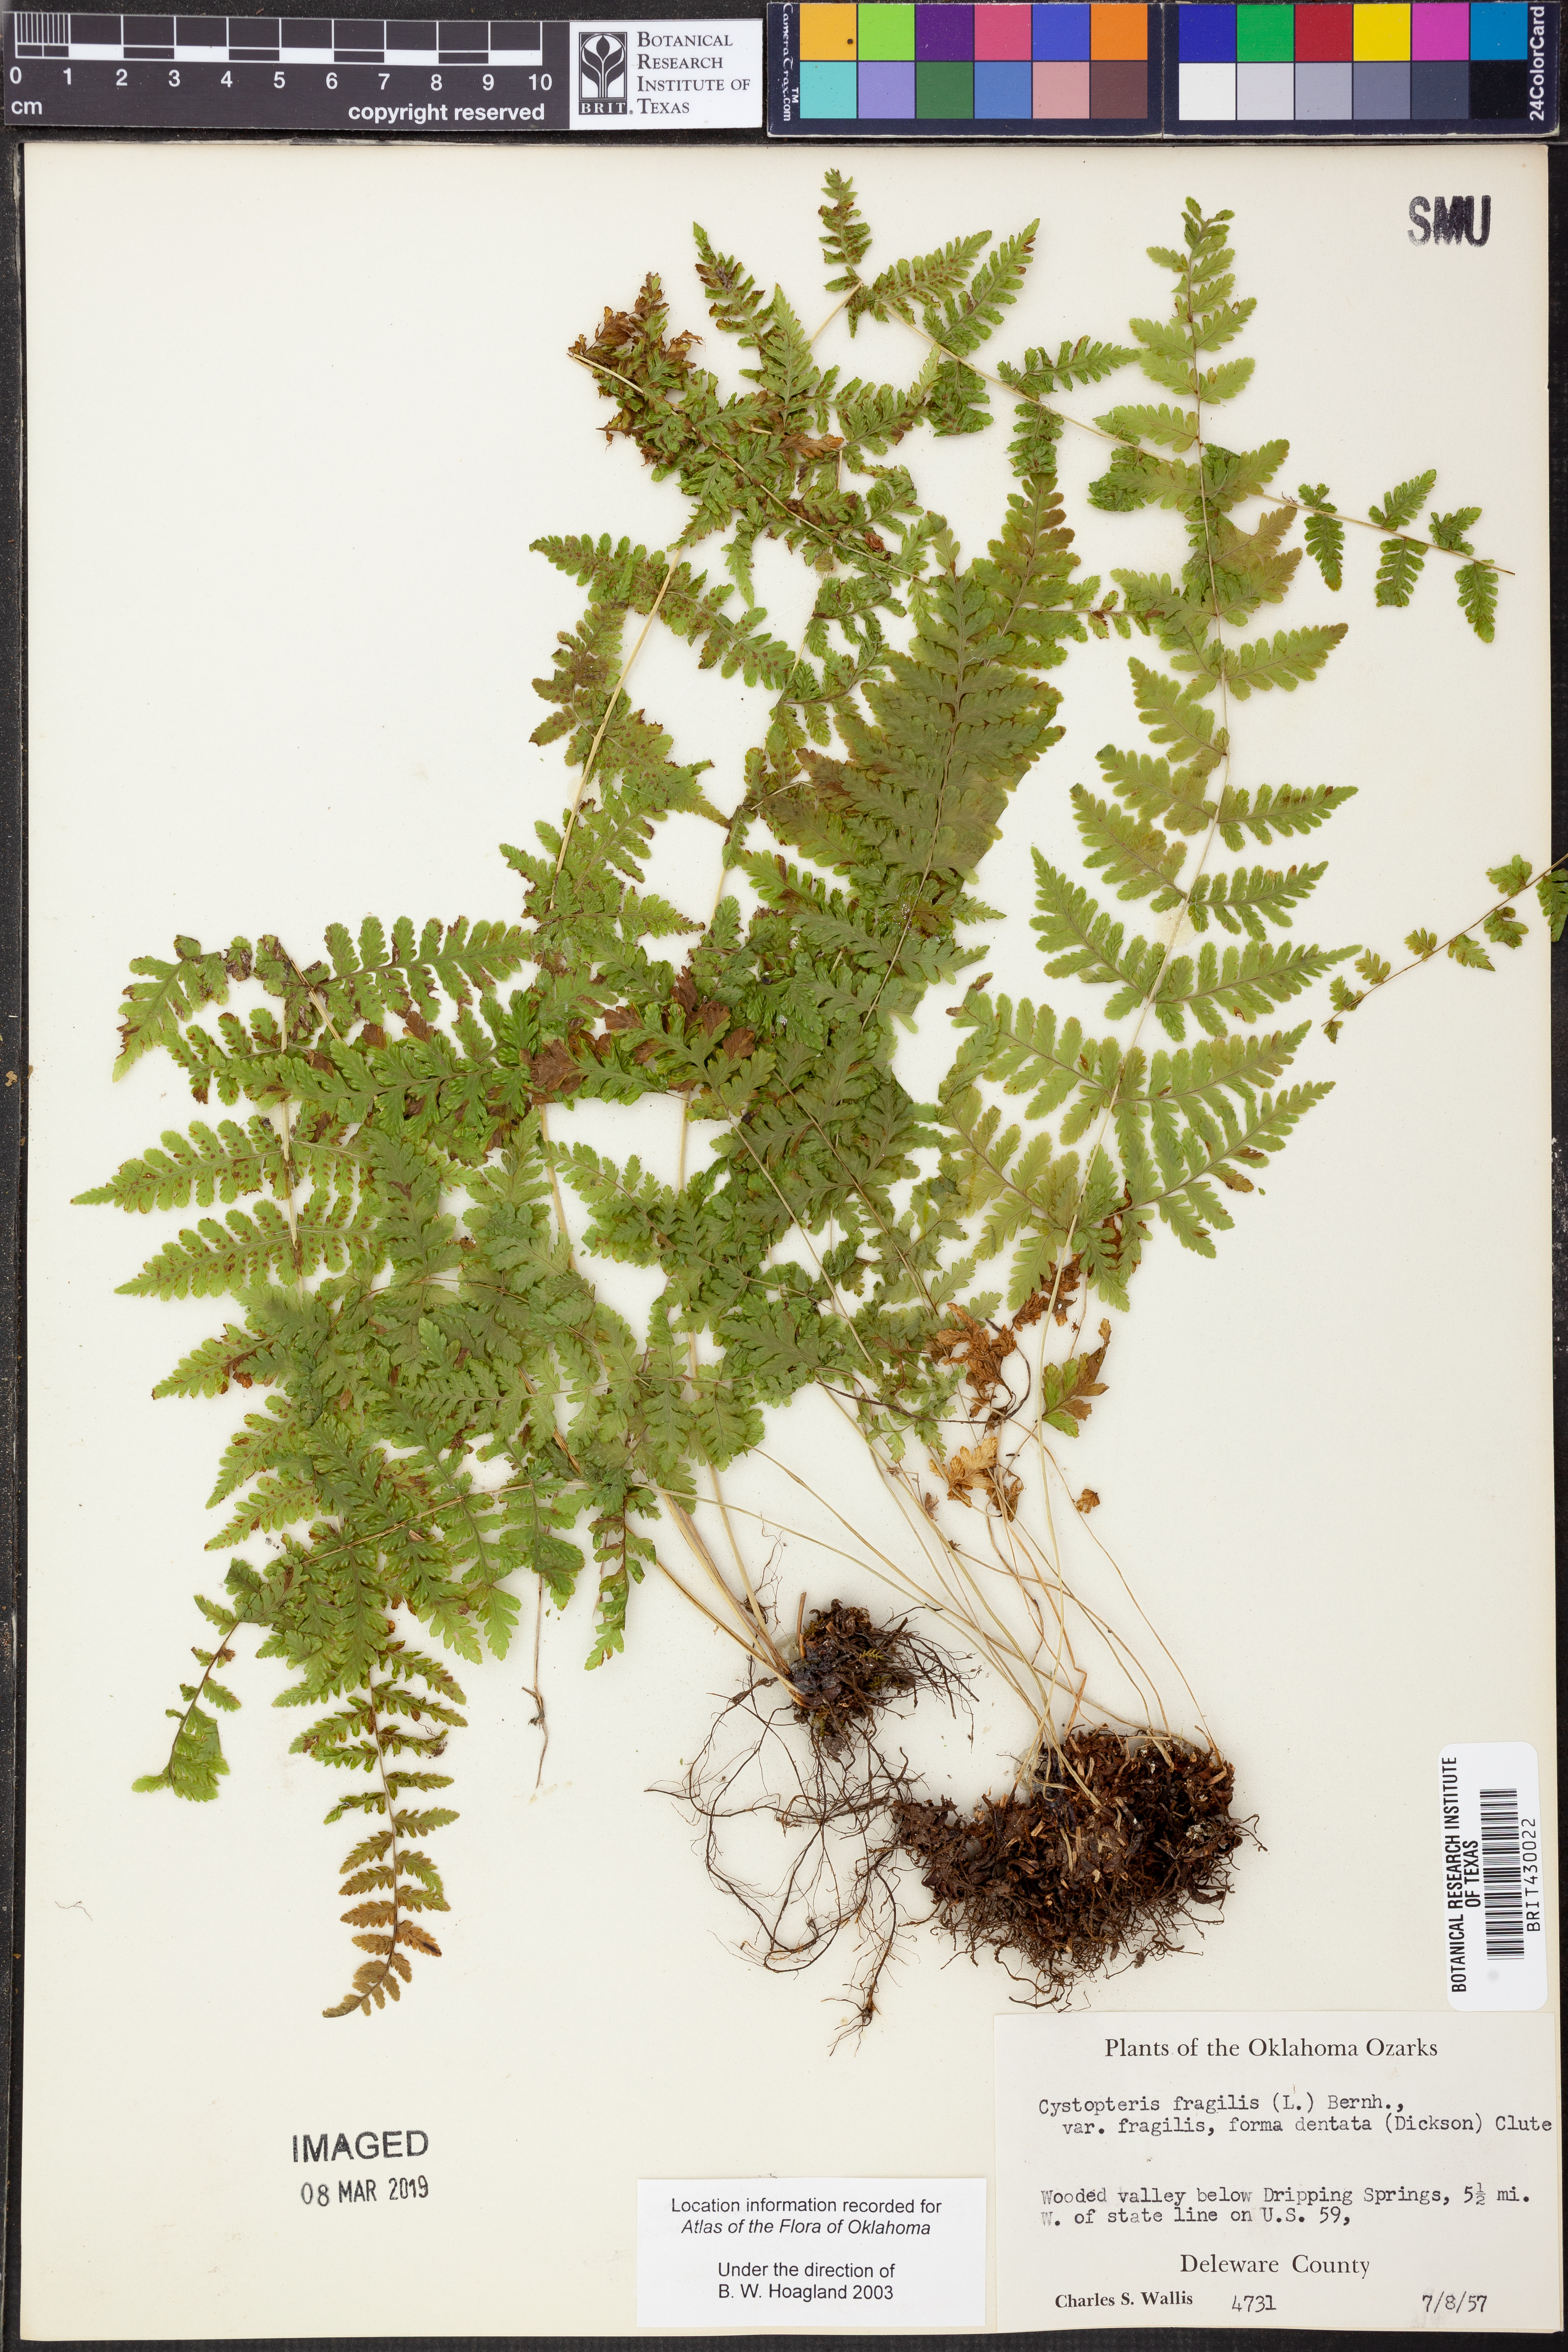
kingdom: Plantae
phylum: Tracheophyta
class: Polypodiopsida
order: Polypodiales
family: Cystopteridaceae
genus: Cystopteris
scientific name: Cystopteris fragilis
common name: Brittle bladder fern
